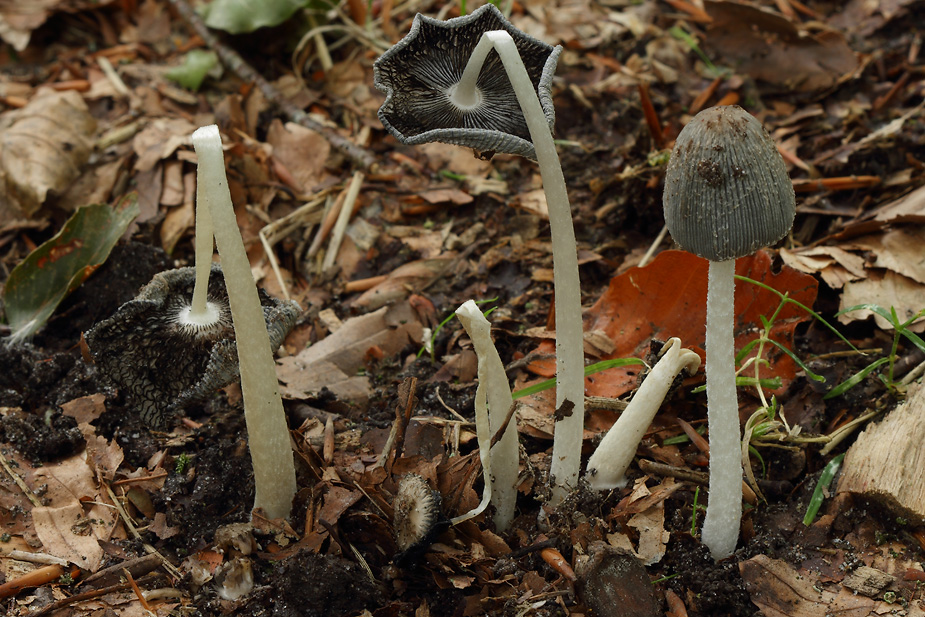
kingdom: Fungi
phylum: Basidiomycota
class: Agaricomycetes
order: Agaricales
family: Psathyrellaceae
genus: Coprinopsis
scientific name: Coprinopsis lagopus
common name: dunstokket blækhat
